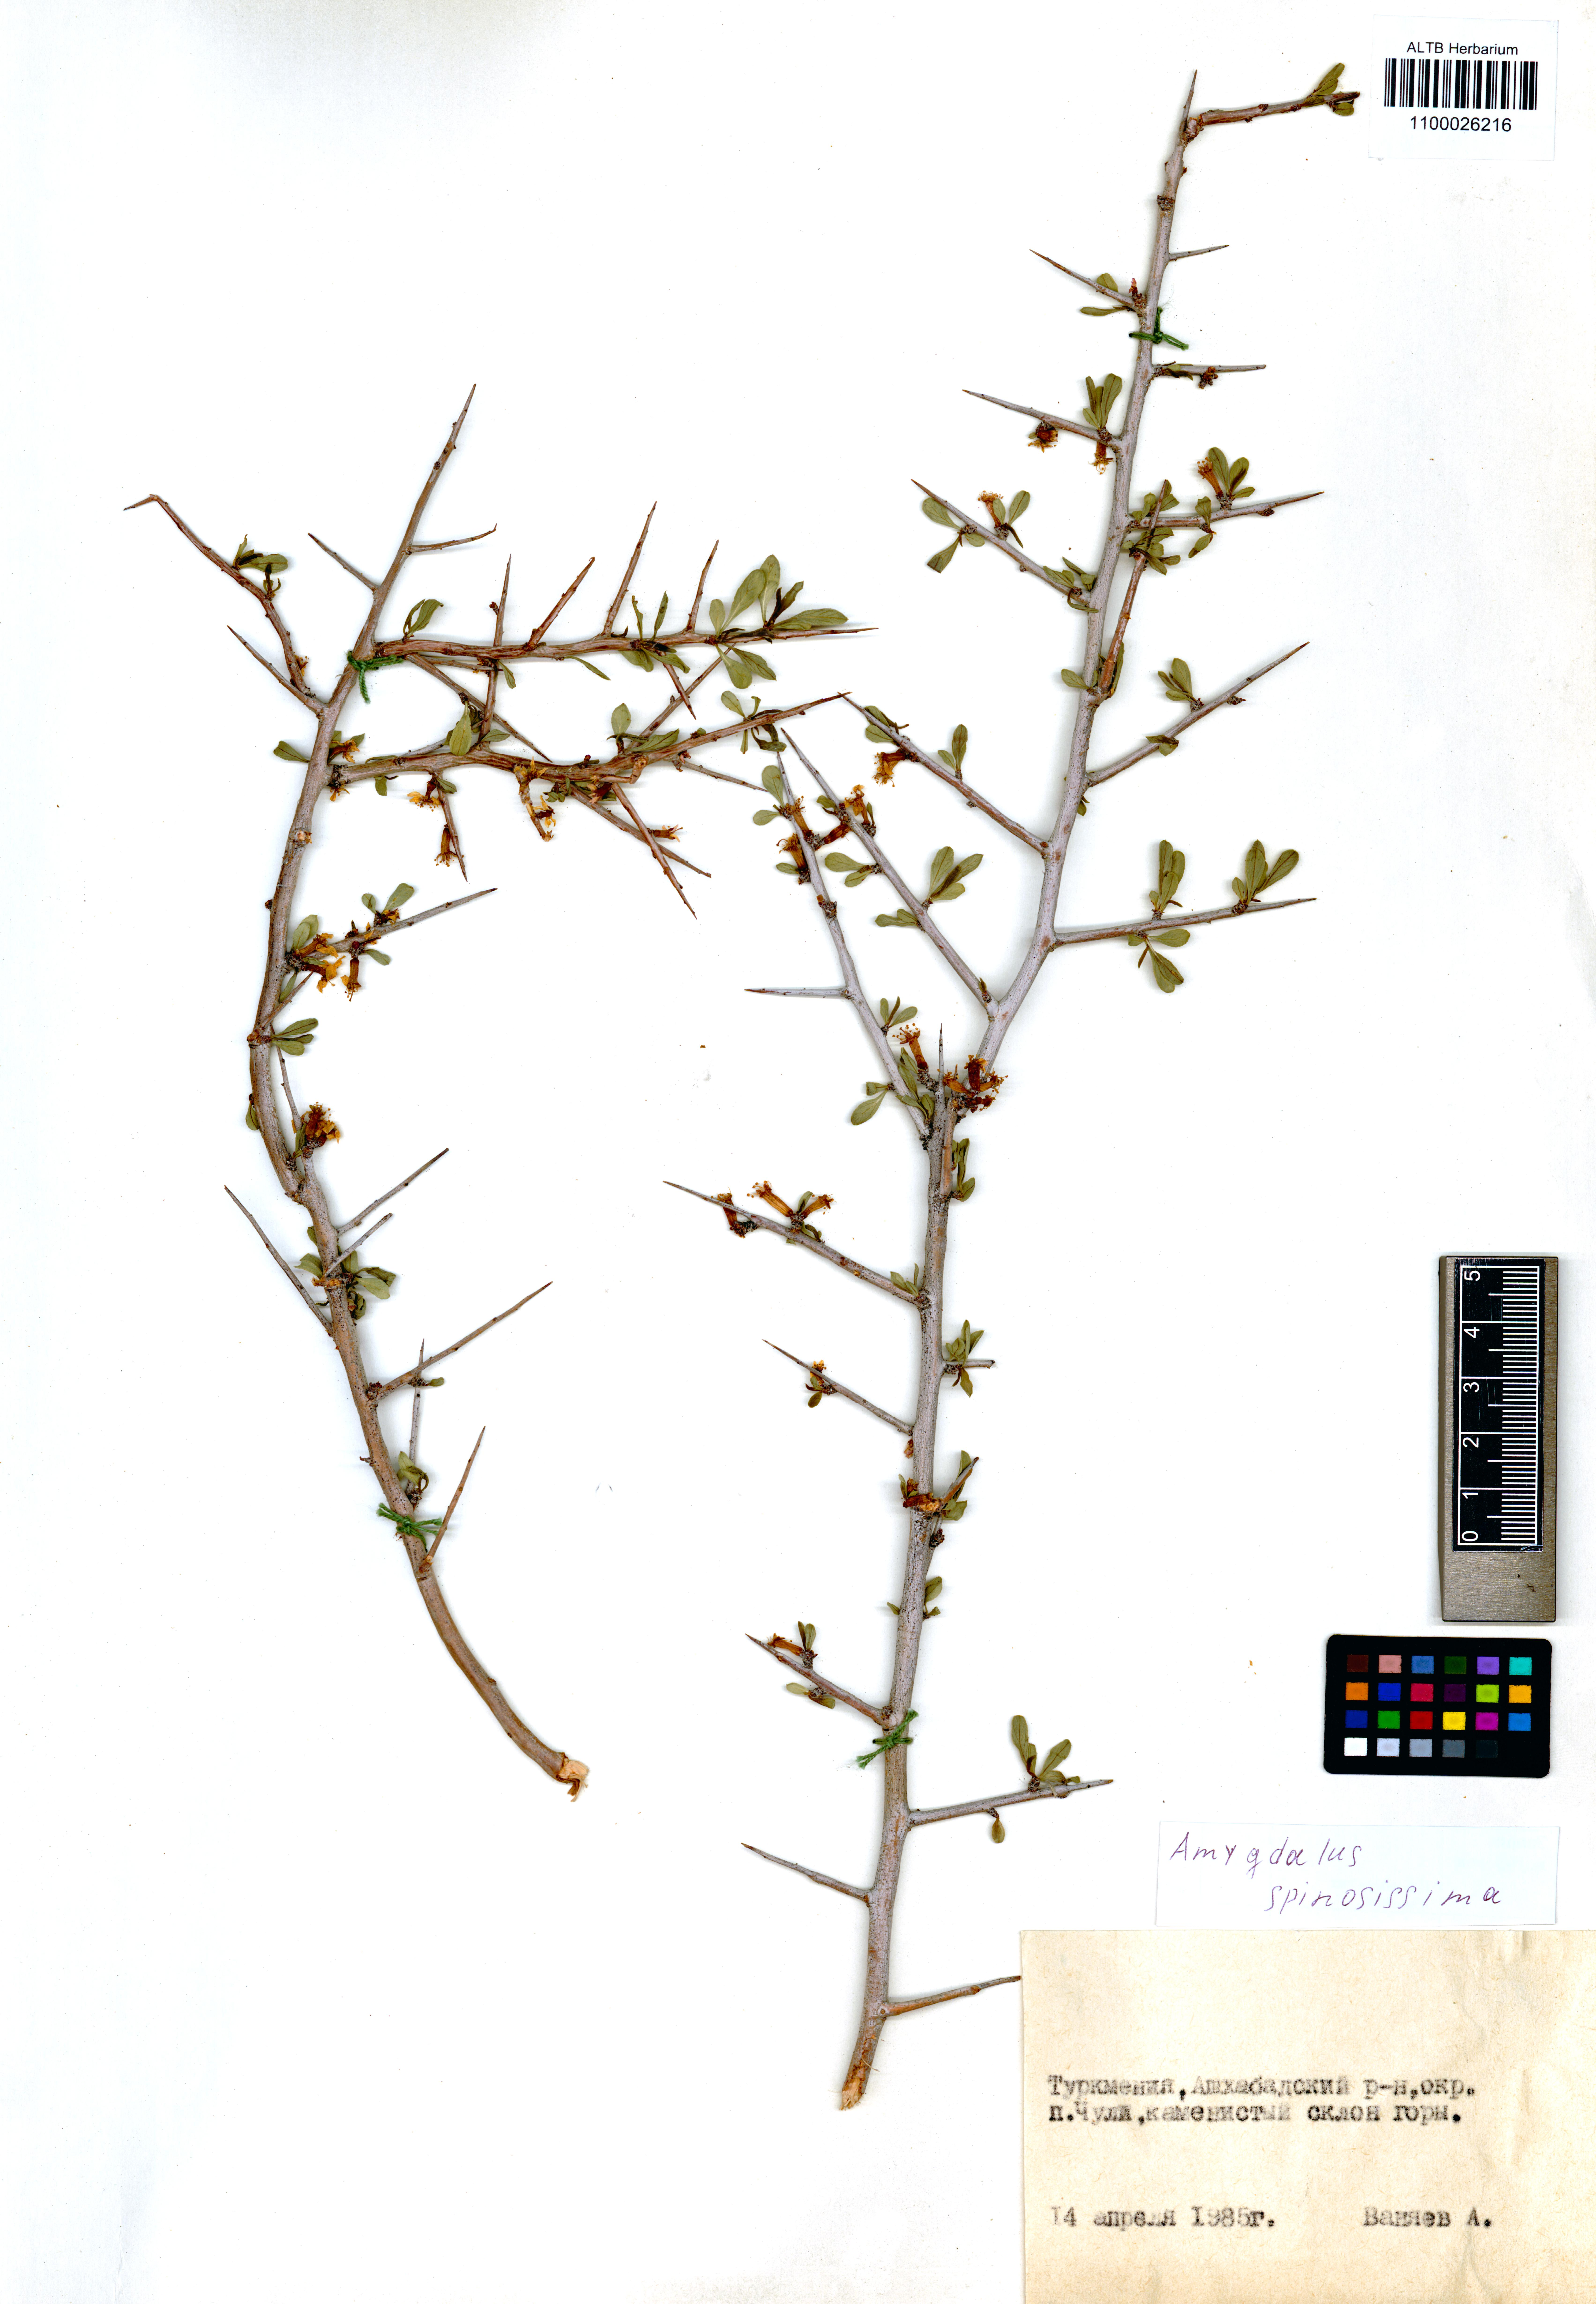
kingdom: Plantae
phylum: Tracheophyta
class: Magnoliopsida
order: Rosales
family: Rosaceae
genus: Prunus
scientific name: Prunus spinosissima
